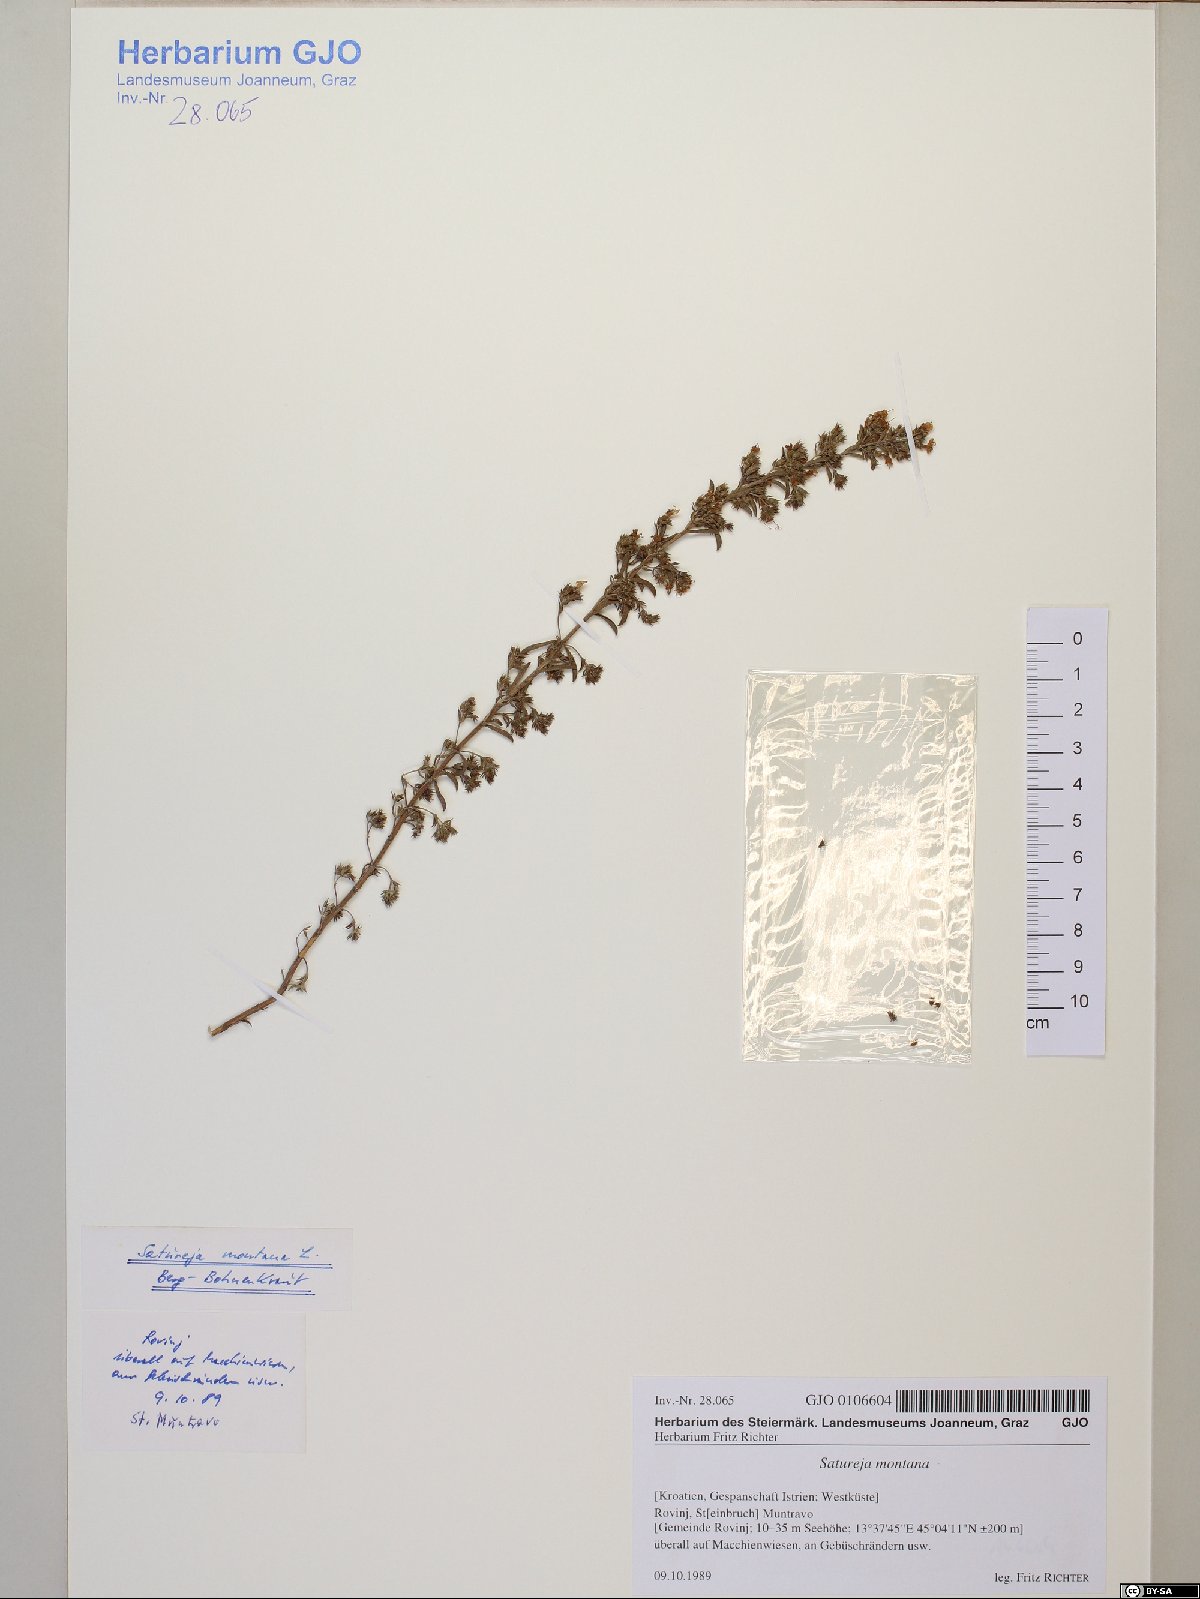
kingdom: Plantae
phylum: Tracheophyta
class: Magnoliopsida
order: Lamiales
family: Lamiaceae
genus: Satureja
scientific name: Satureja montana
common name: Winter savory
